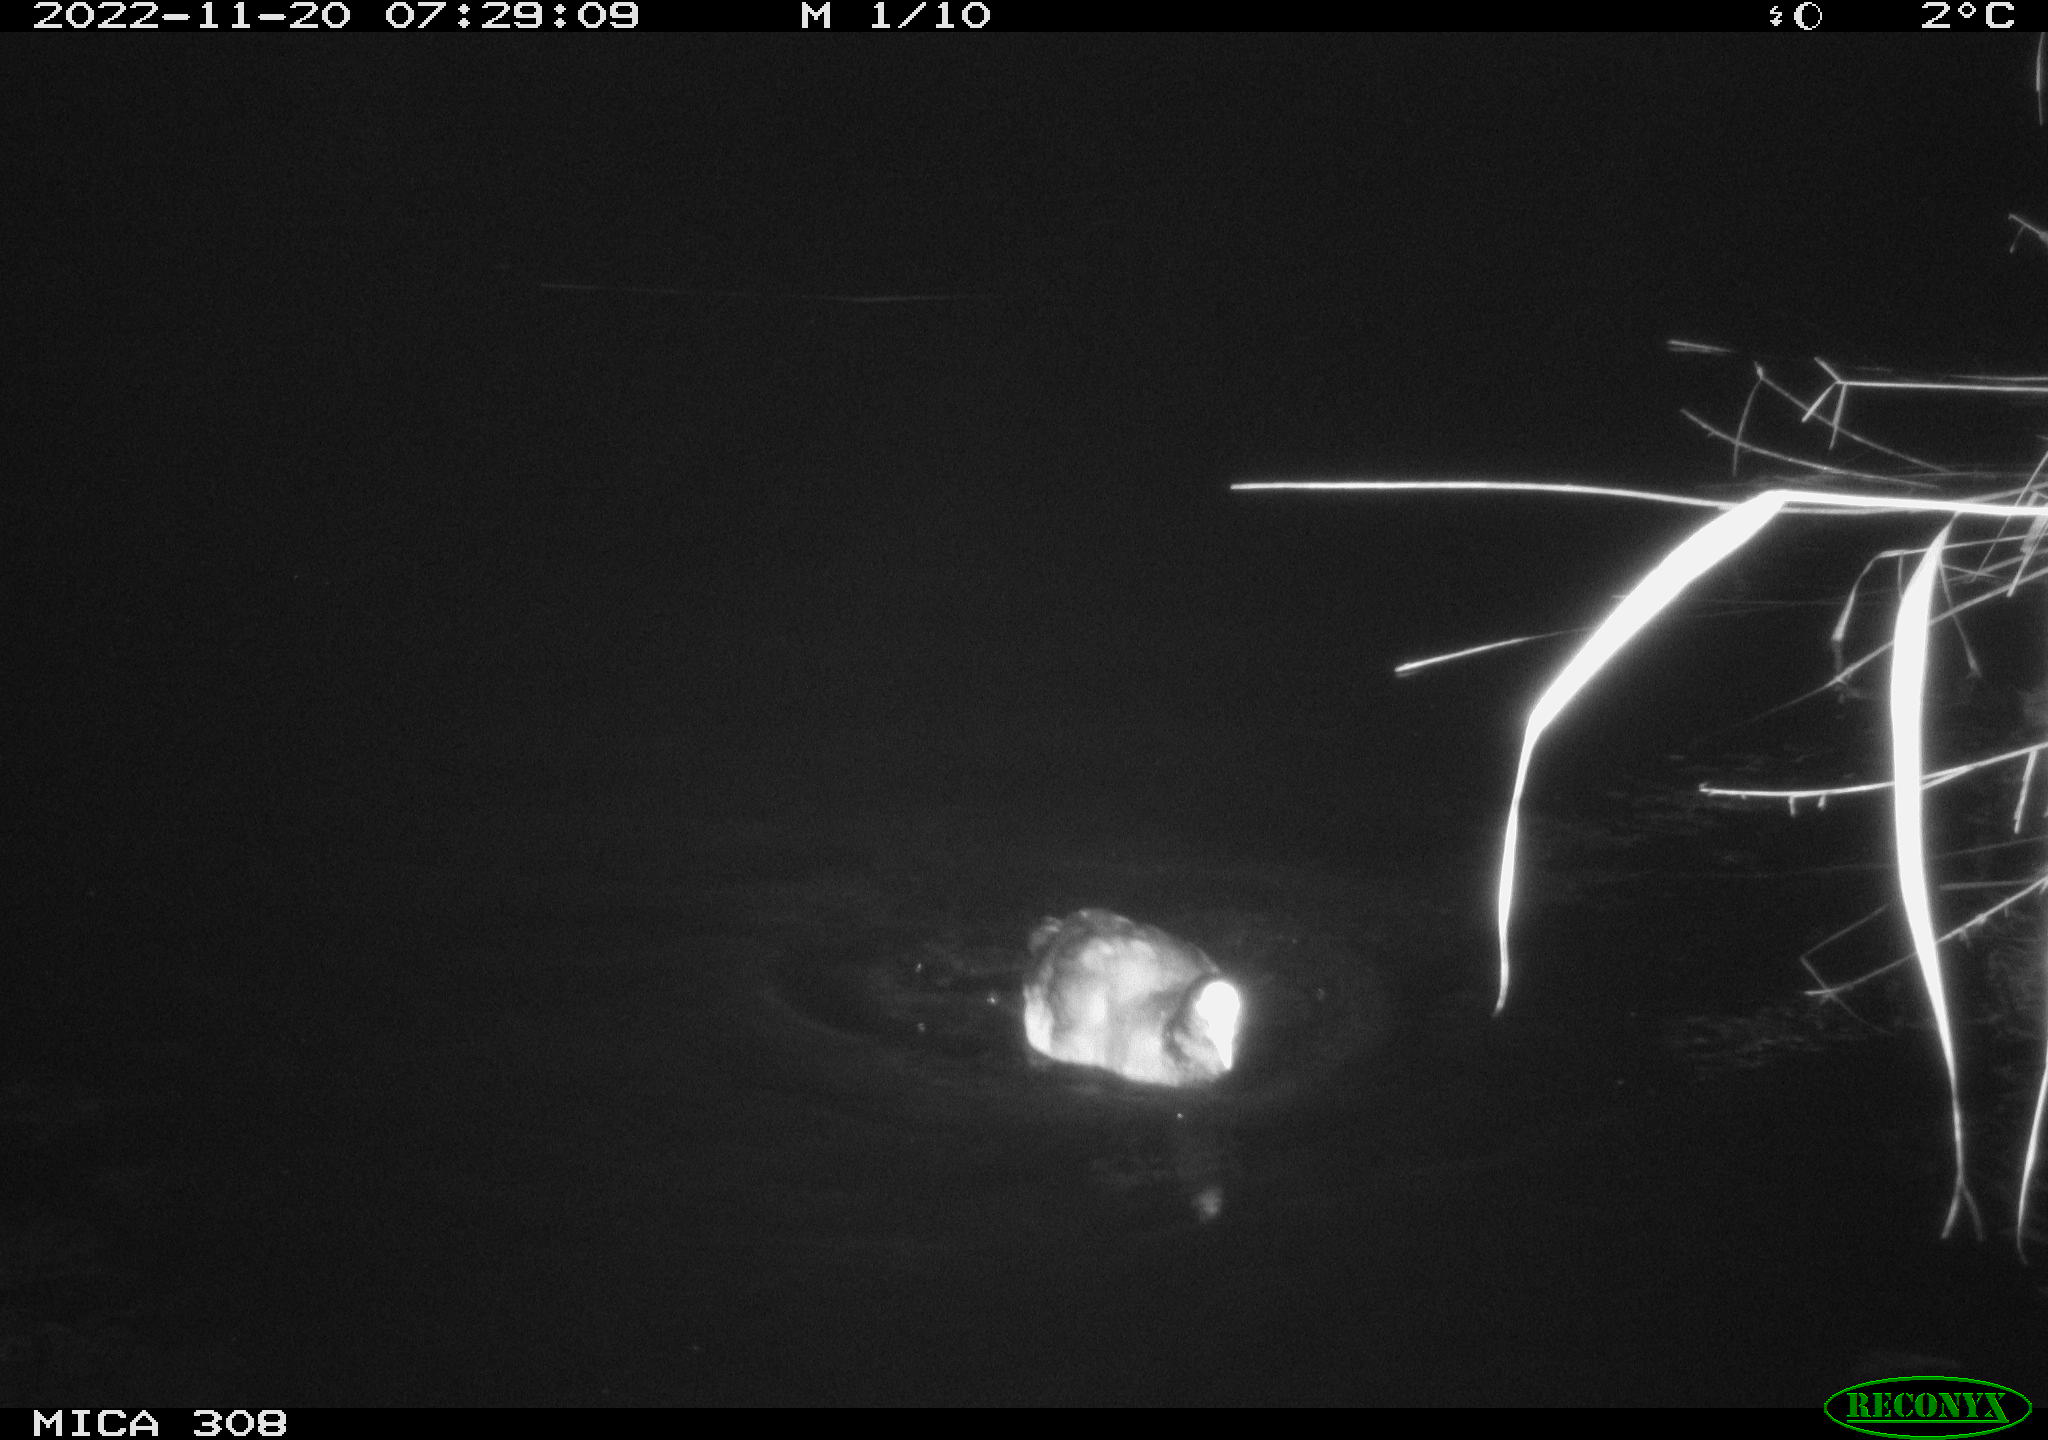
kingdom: Animalia
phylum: Chordata
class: Aves
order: Anseriformes
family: Anatidae
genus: Anas
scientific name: Anas
